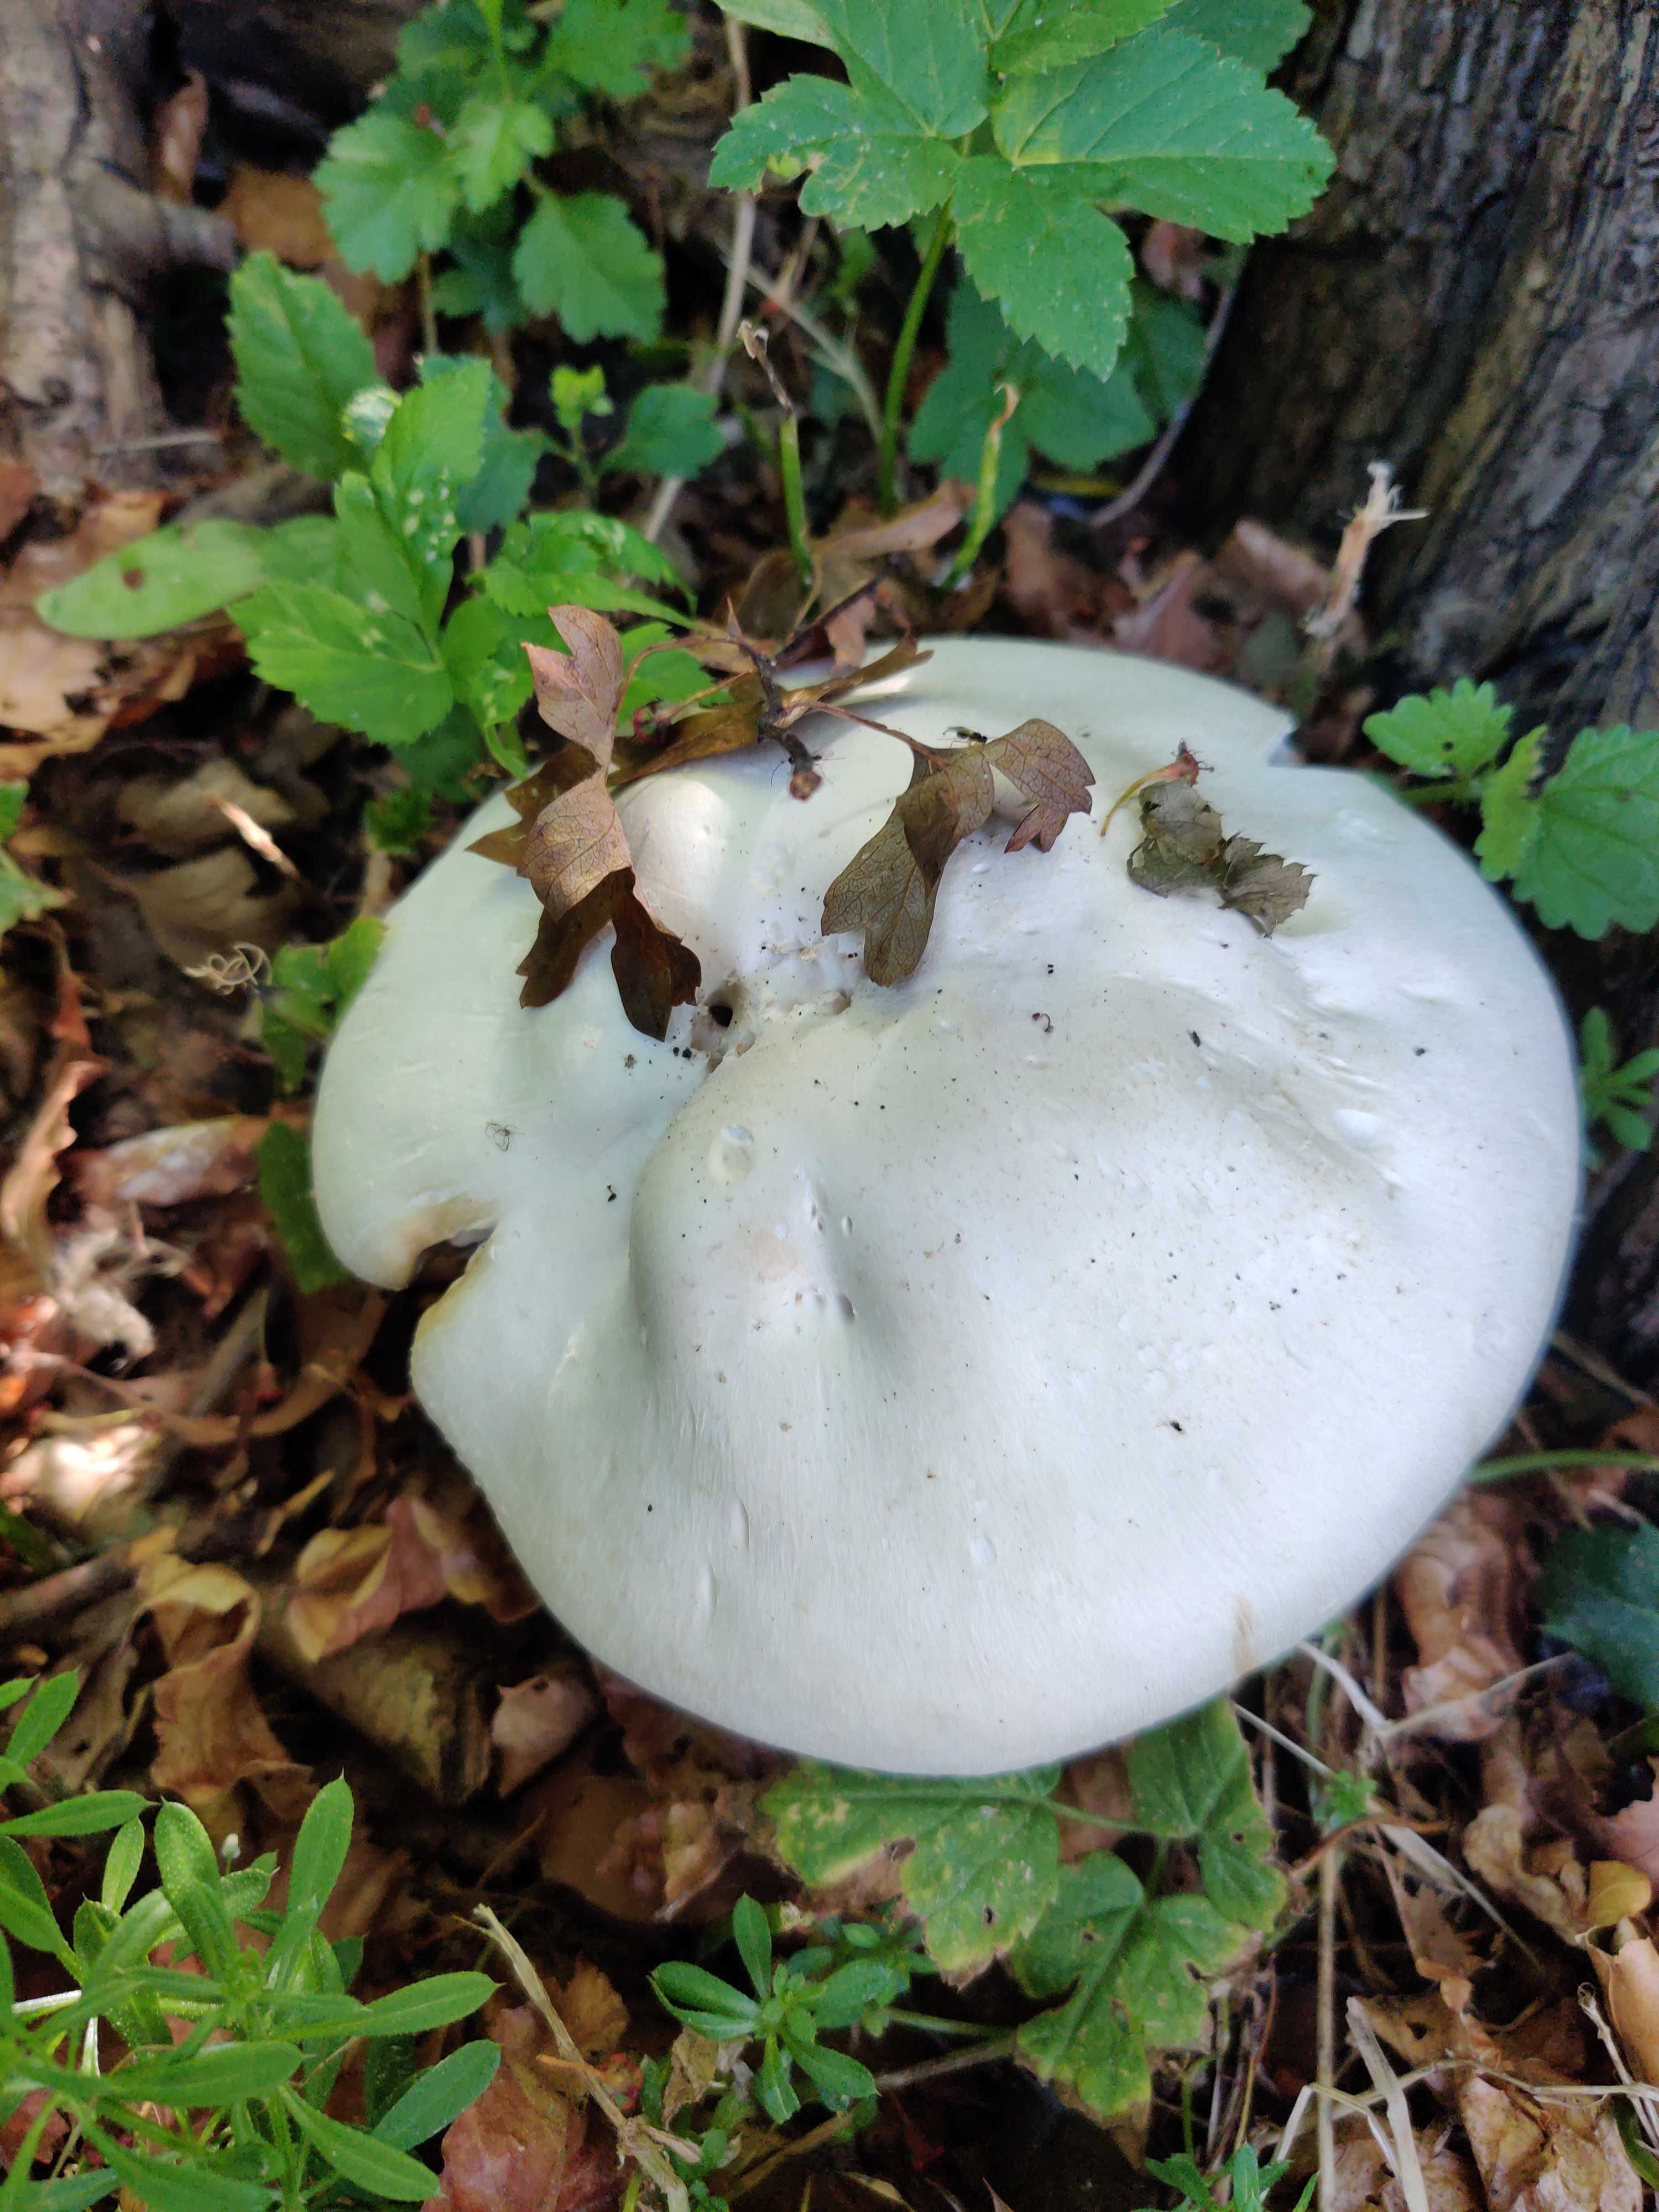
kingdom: Fungi
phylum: Basidiomycota
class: Agaricomycetes
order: Agaricales
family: Agaricaceae
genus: Agaricus
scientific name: Agaricus
